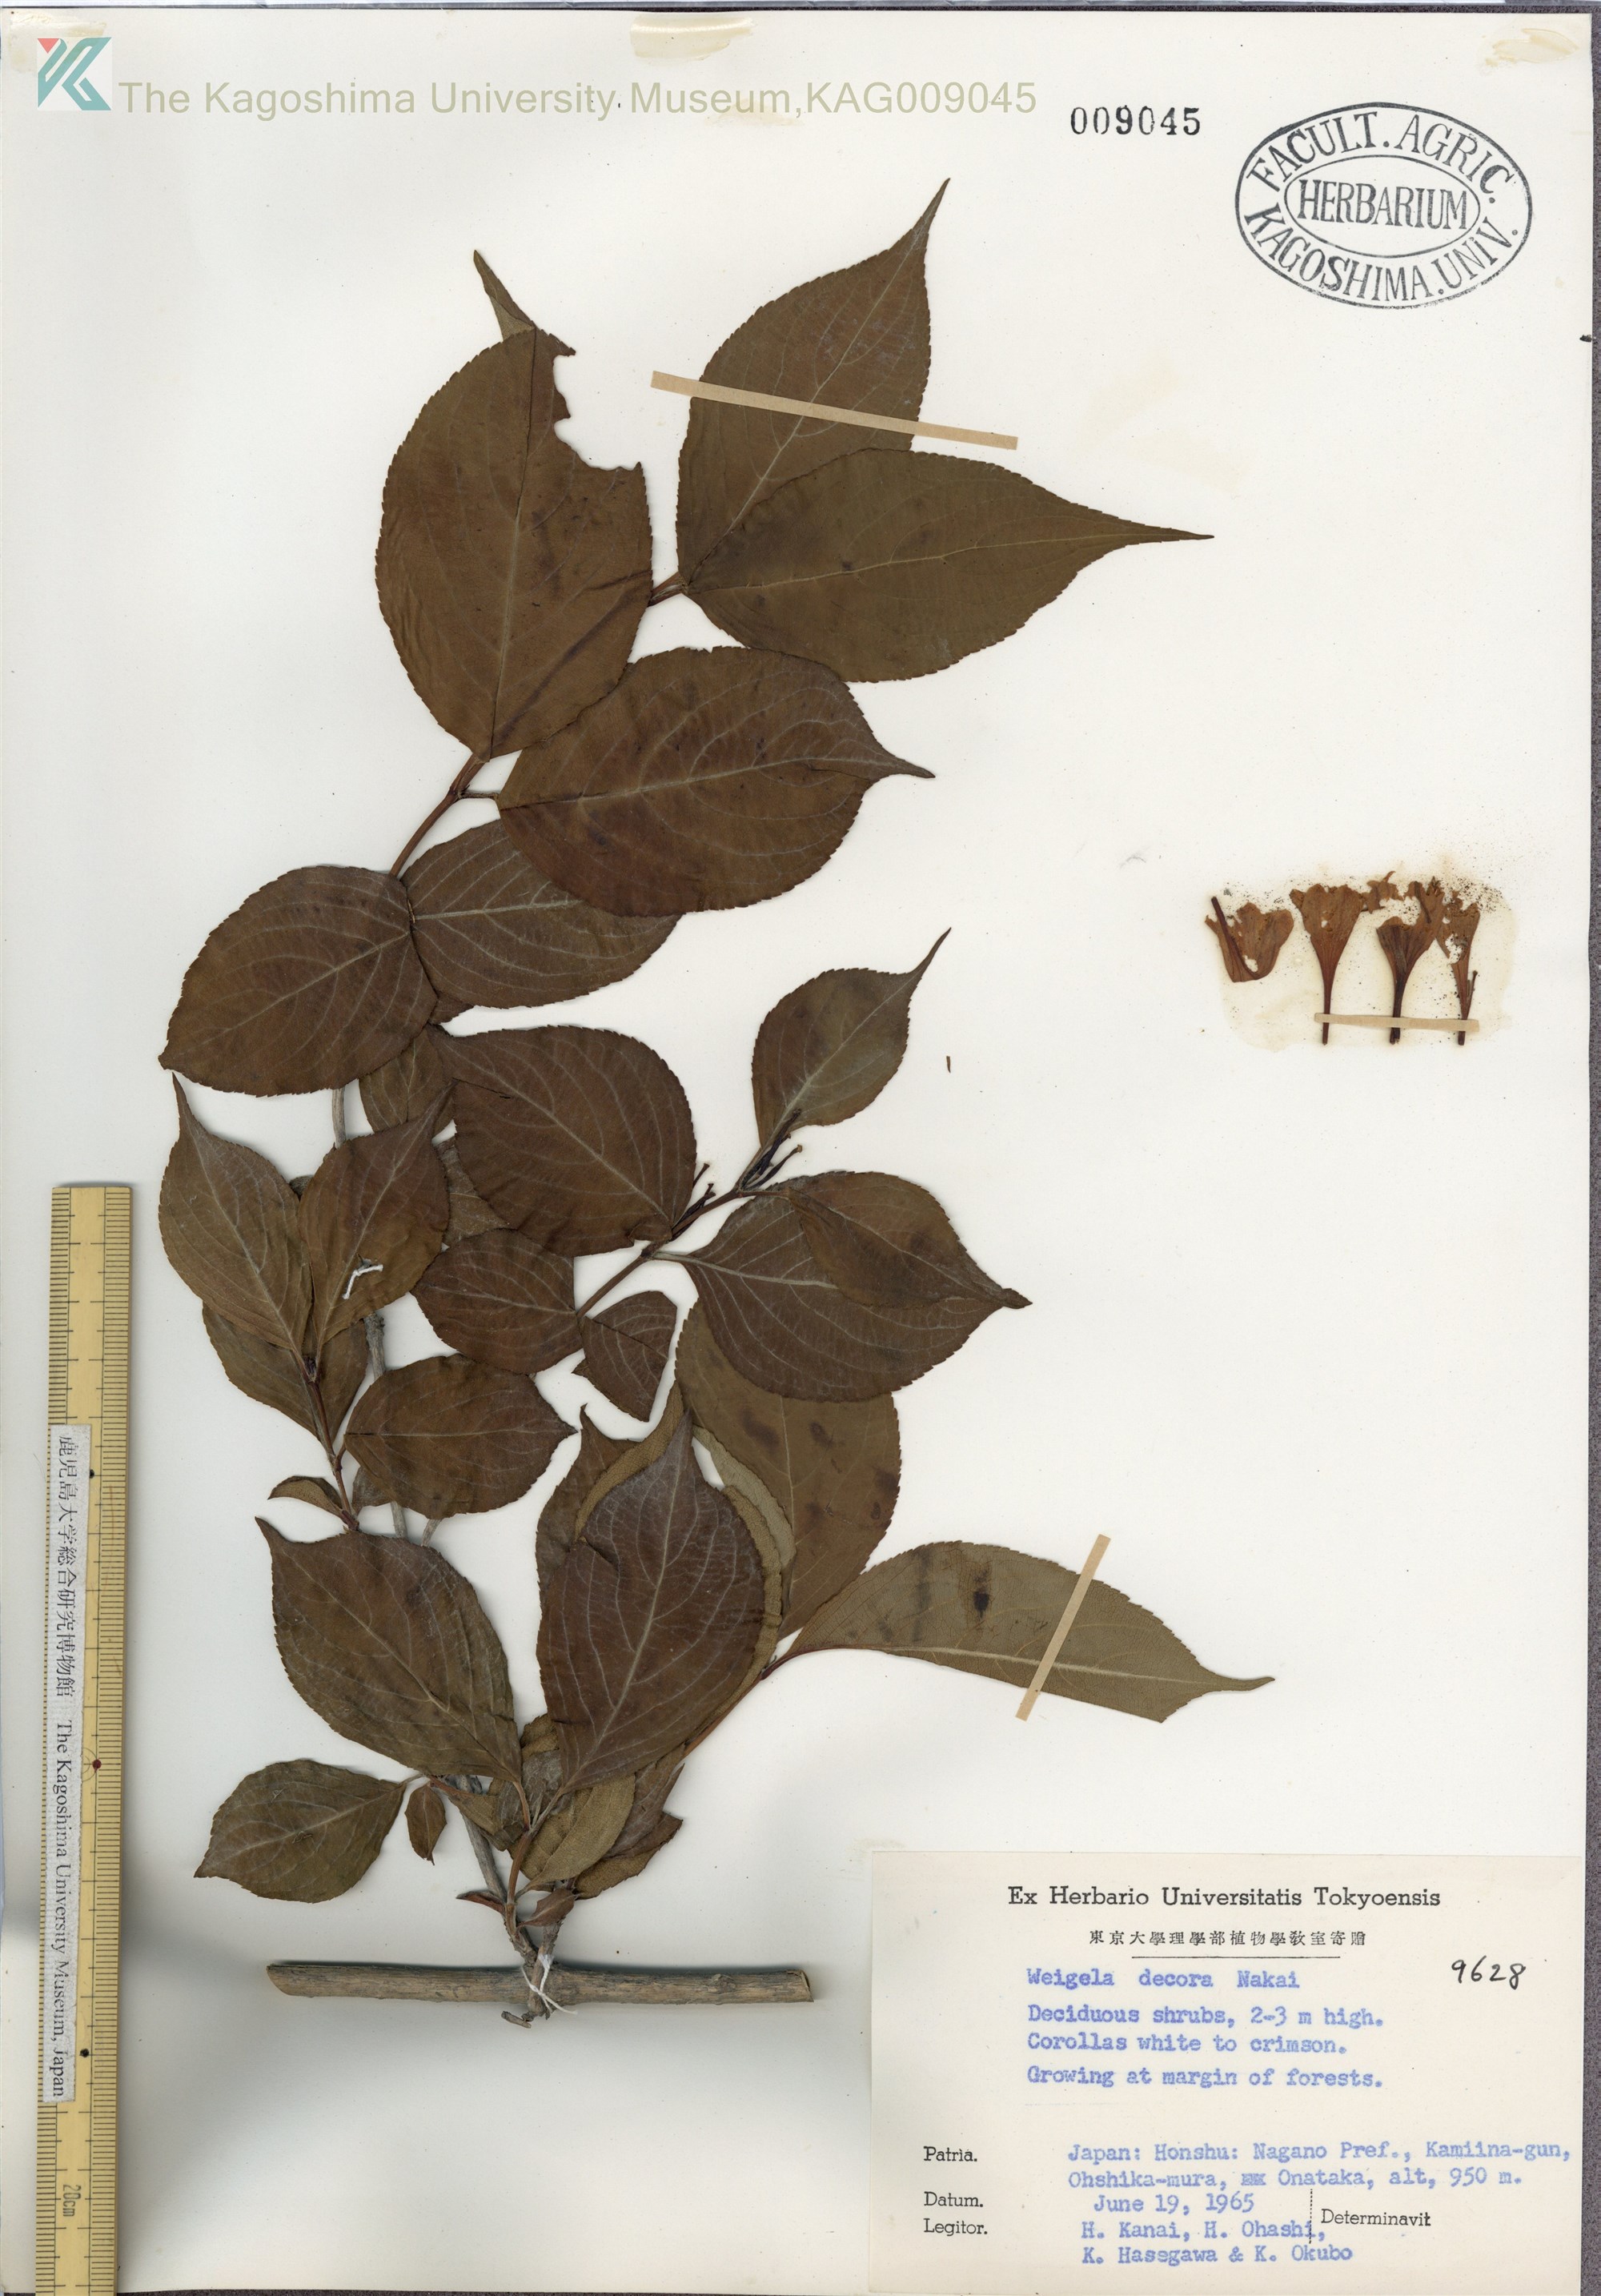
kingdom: Plantae
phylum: Tracheophyta
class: Magnoliopsida
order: Dipsacales
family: Caprifoliaceae
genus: Weigela
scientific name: Weigela decora
